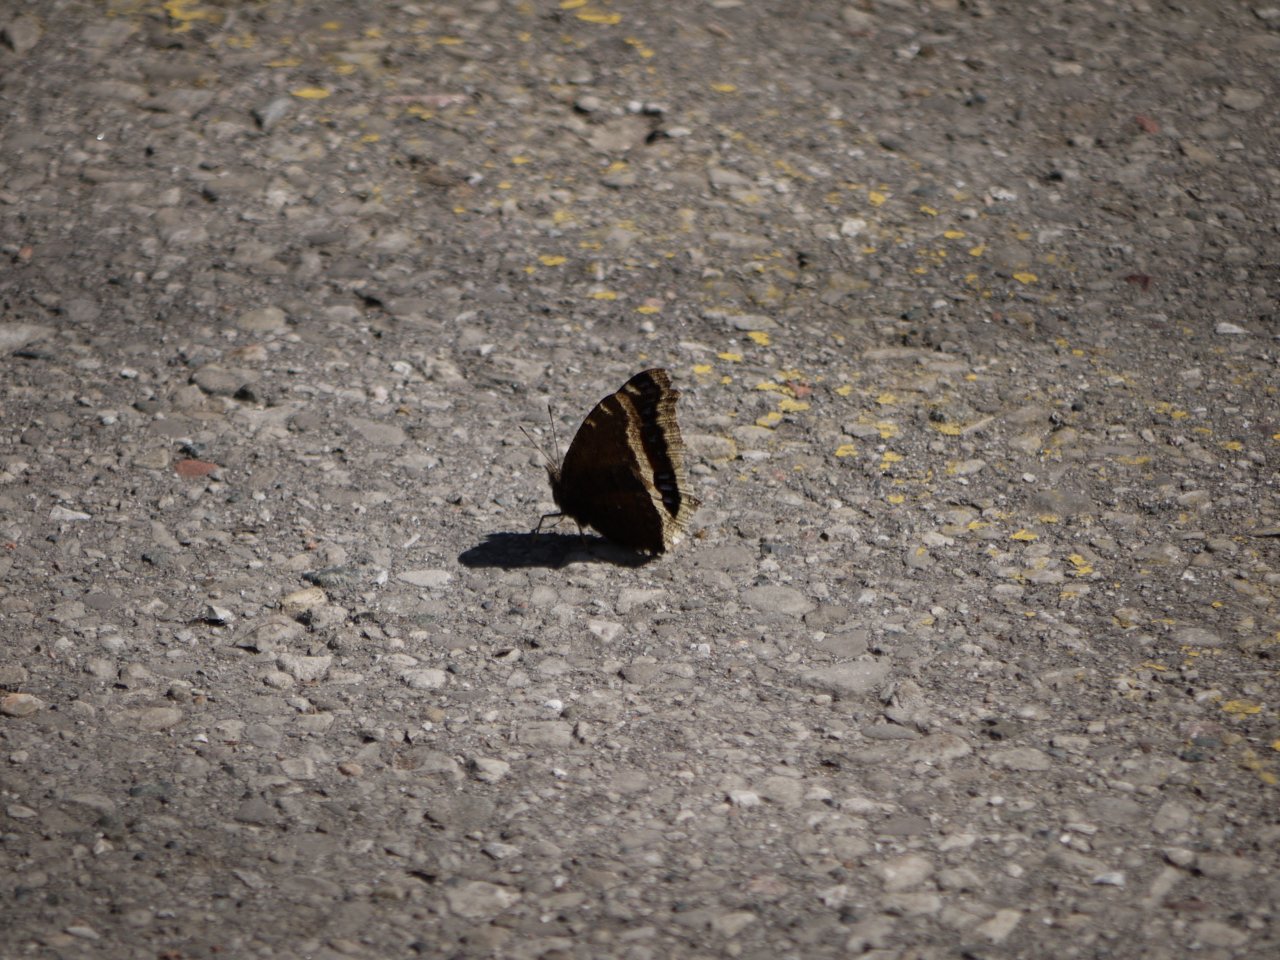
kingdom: Animalia
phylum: Arthropoda
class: Insecta
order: Lepidoptera
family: Nymphalidae
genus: Nymphalis
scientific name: Nymphalis antiopa
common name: Mourning Cloak
